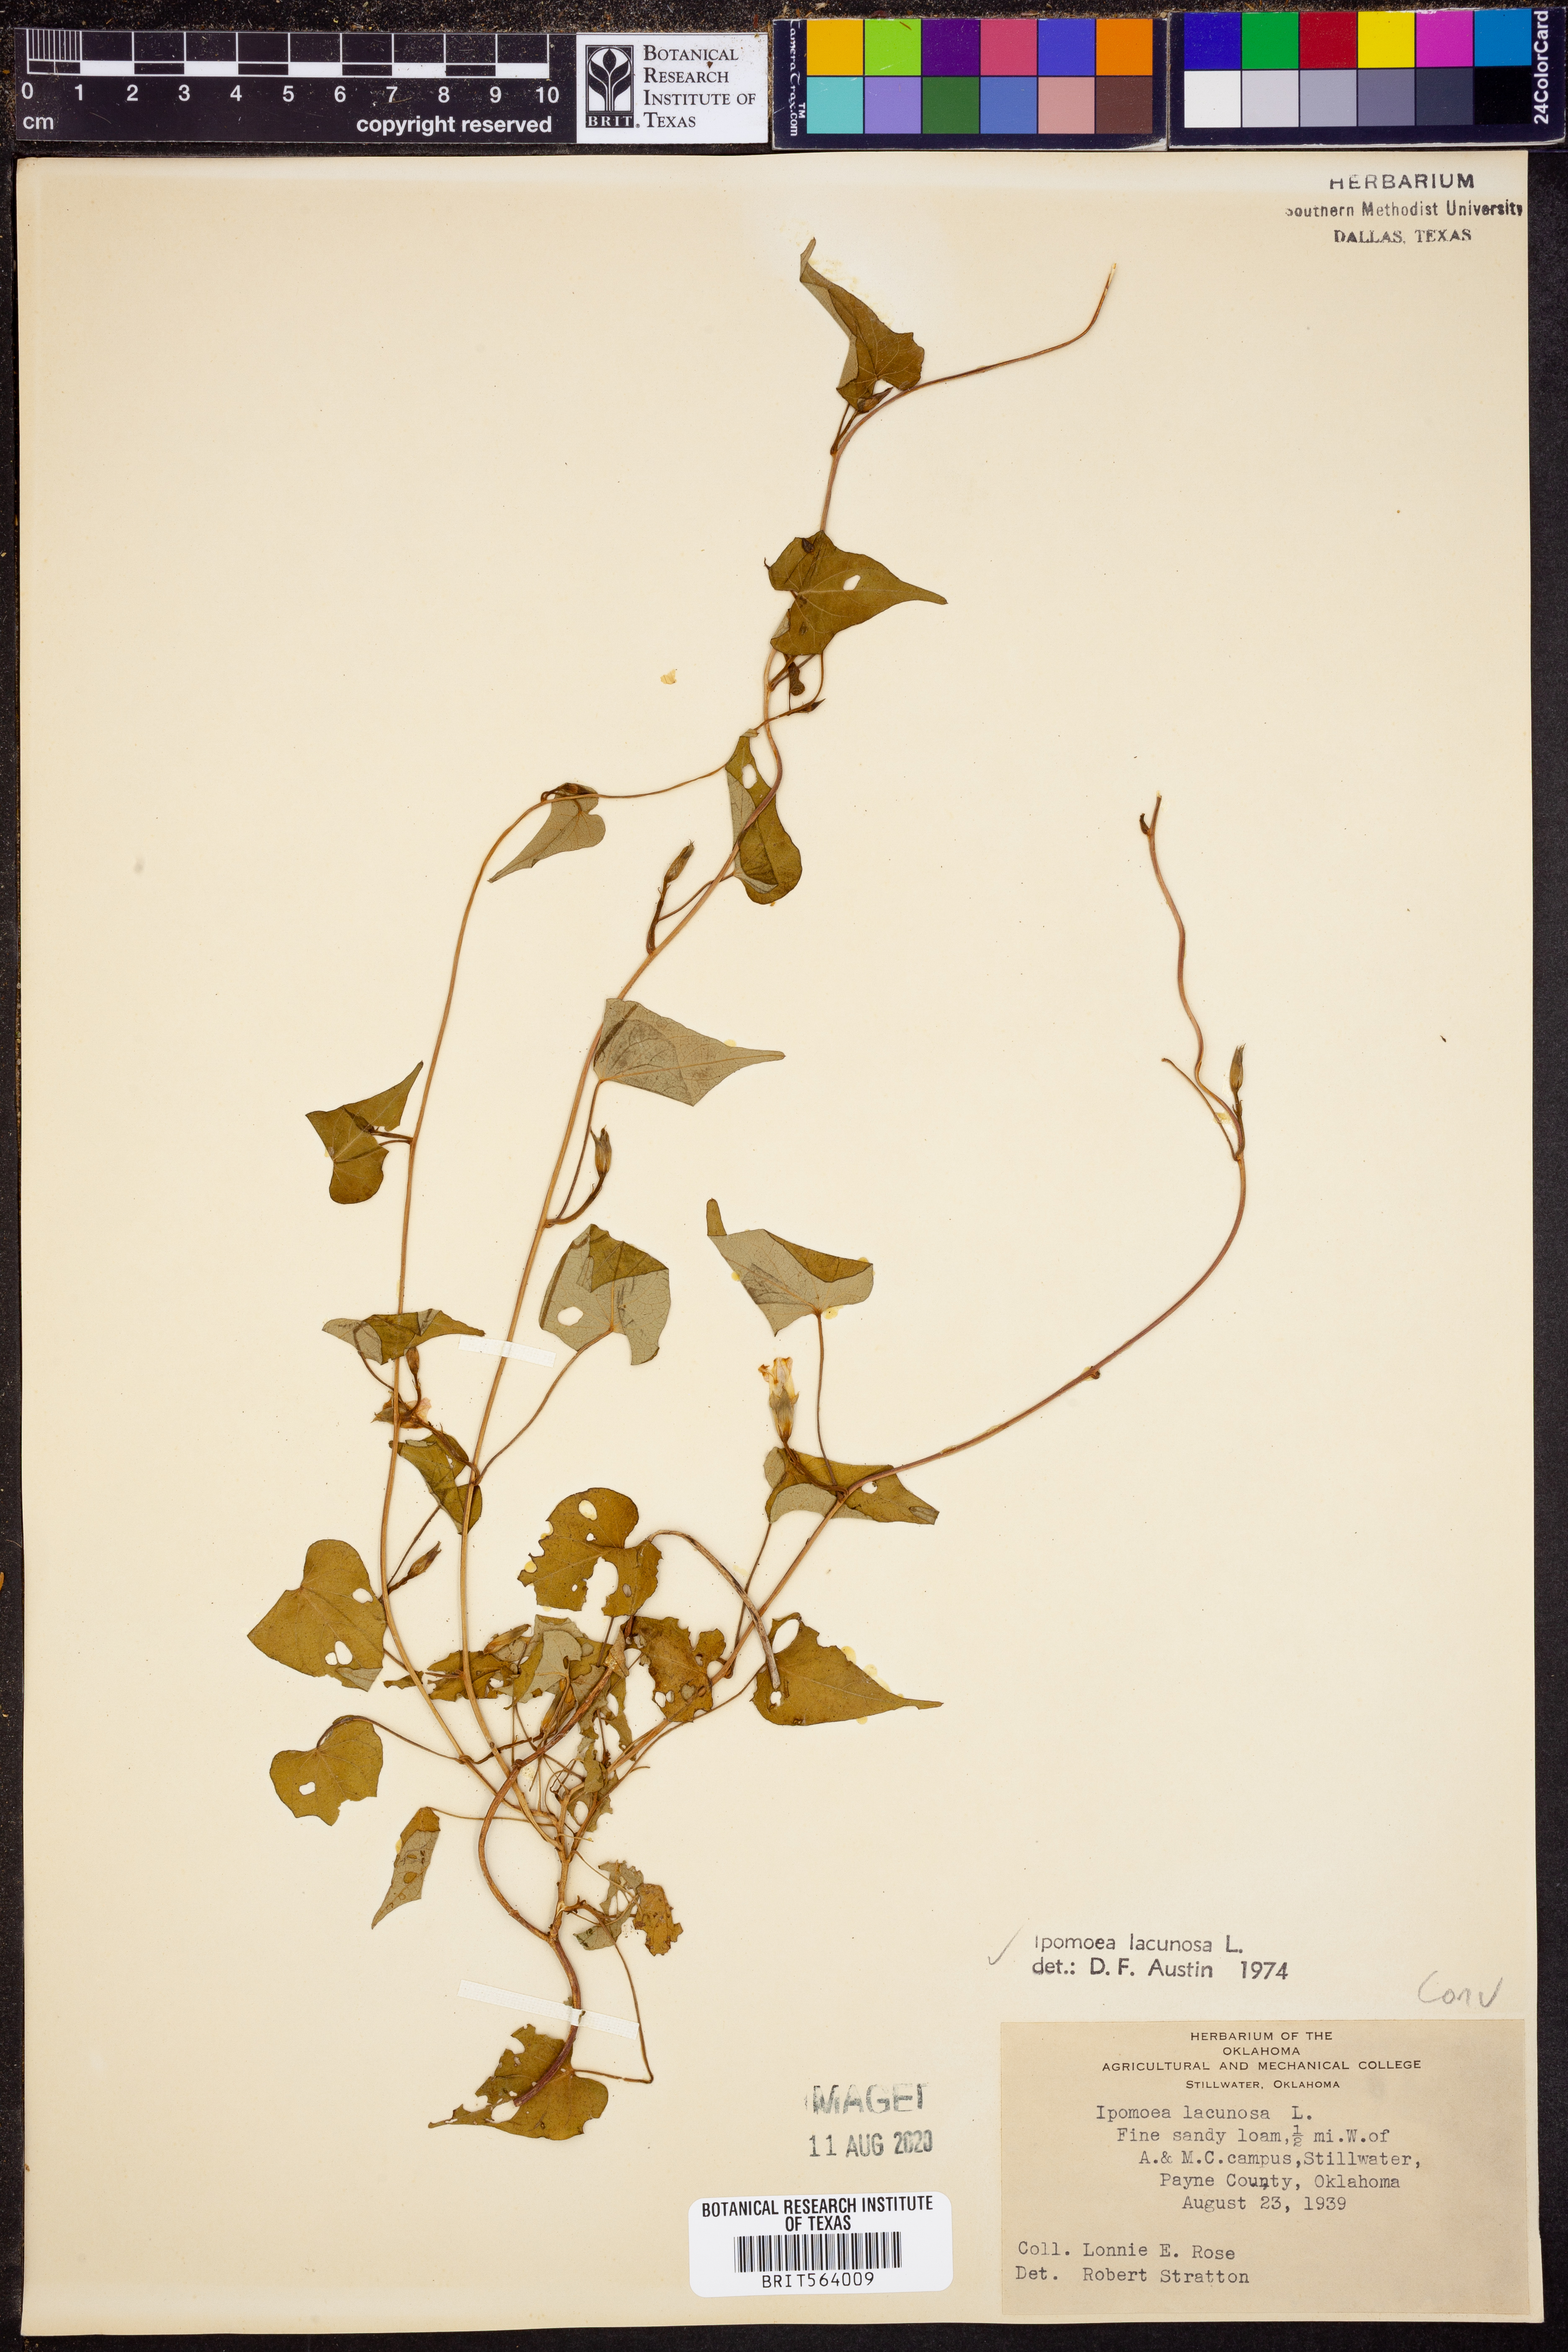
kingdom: Plantae
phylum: Tracheophyta
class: Magnoliopsida
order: Solanales
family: Convolvulaceae
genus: Ipomoea
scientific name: Ipomoea lacunosa
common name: White morning-glory
